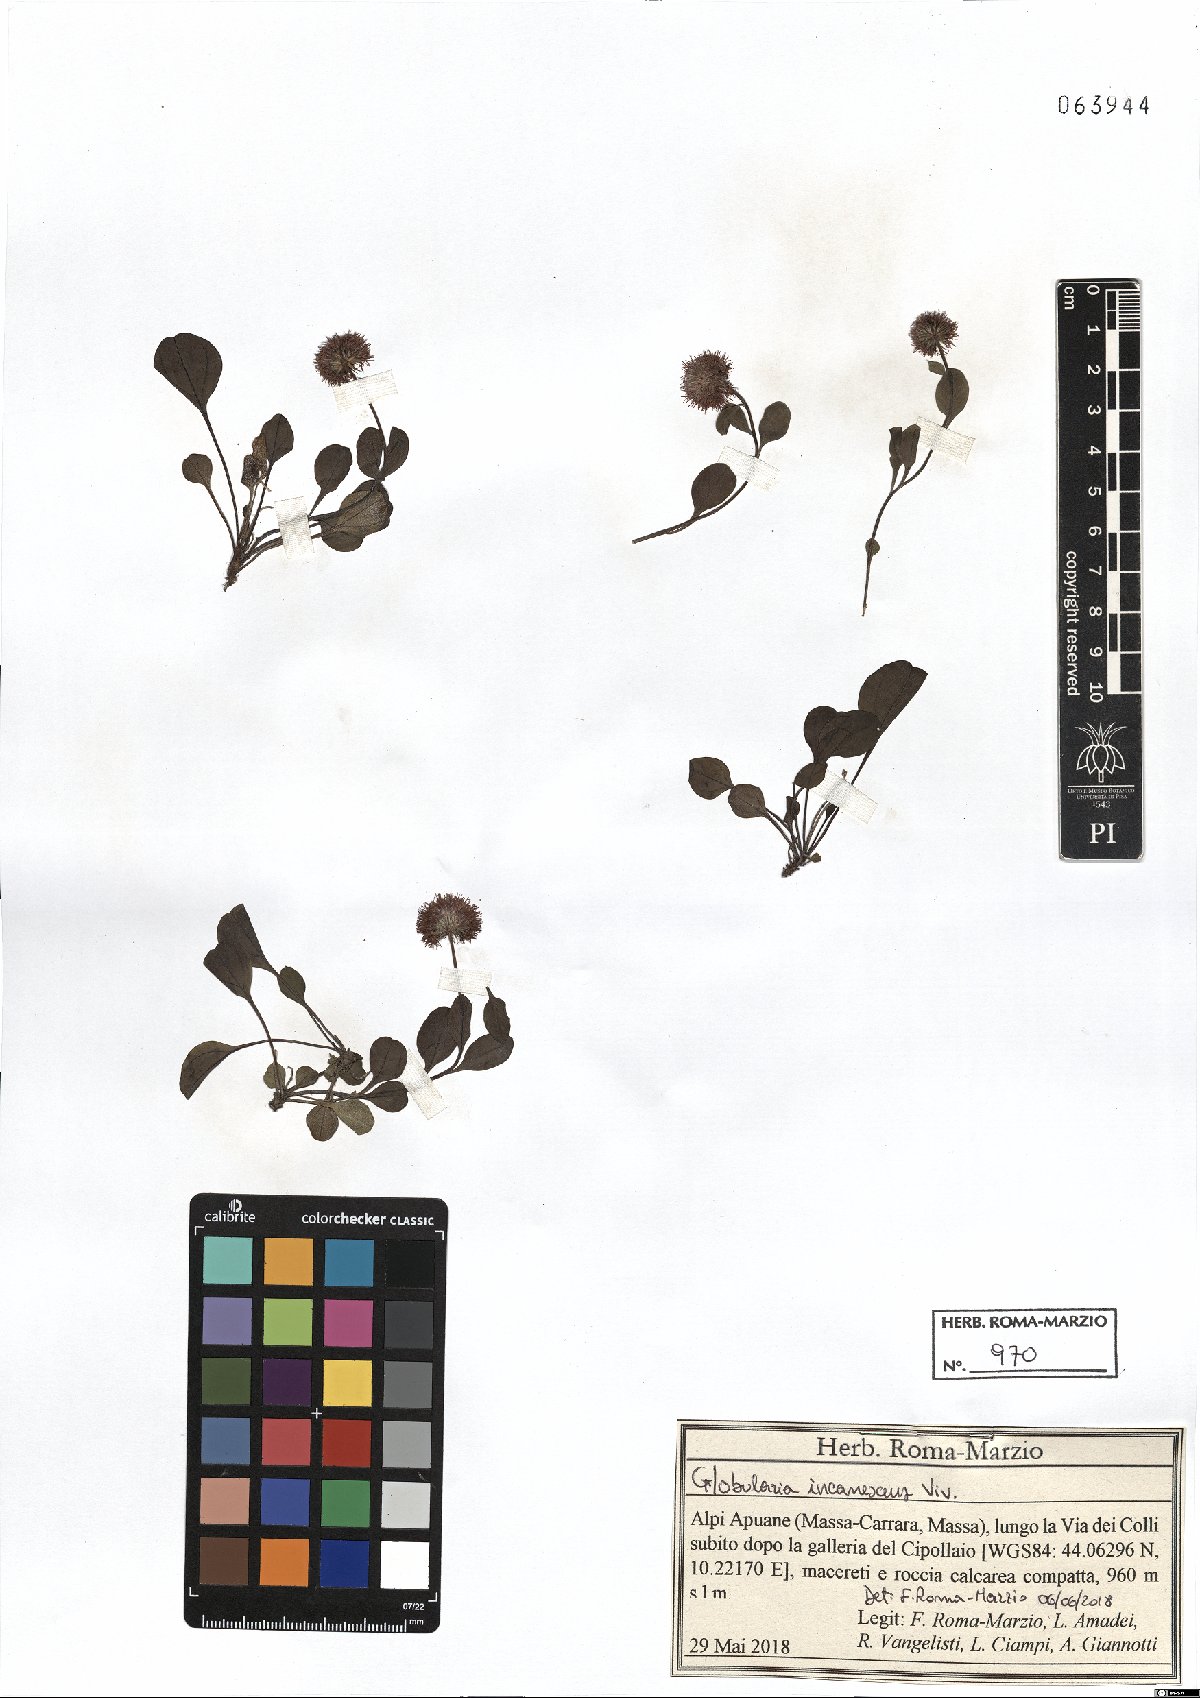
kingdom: Plantae
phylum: Tracheophyta
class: Magnoliopsida
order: Lamiales
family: Plantaginaceae
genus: Globularia
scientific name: Globularia incanescens
